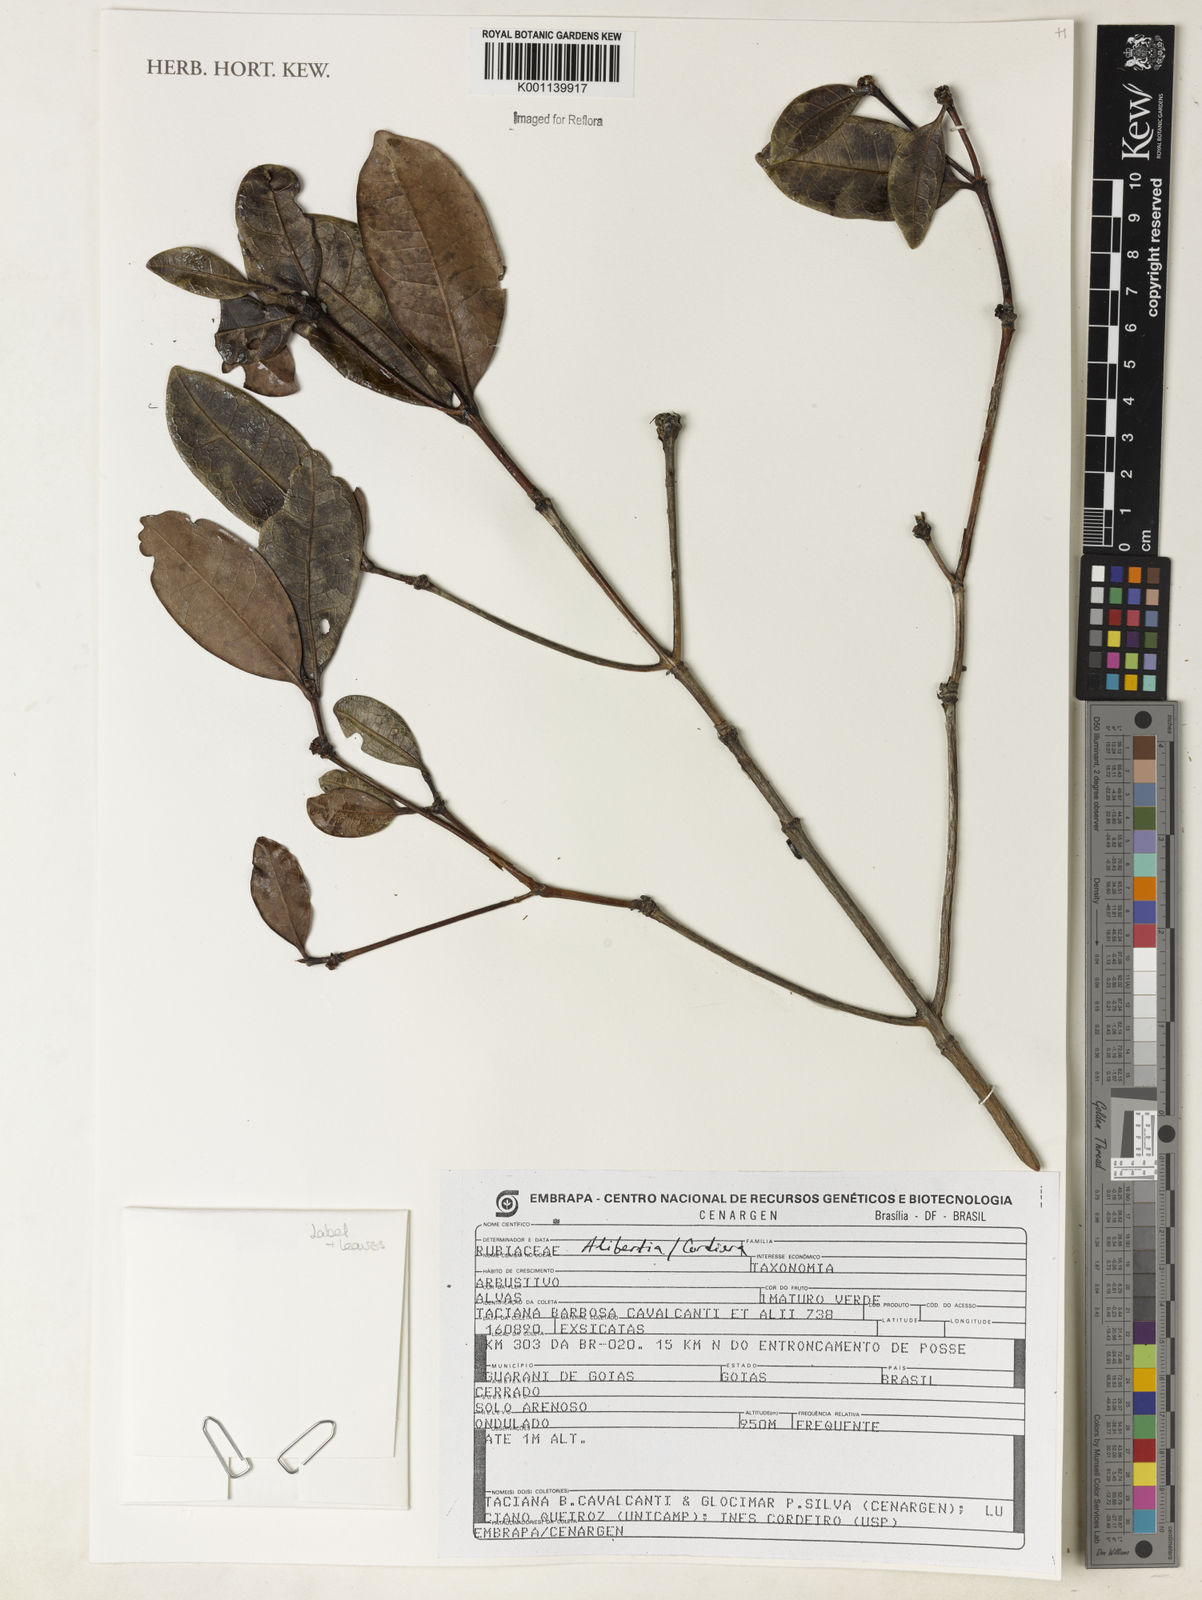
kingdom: Plantae
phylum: Tracheophyta
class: Magnoliopsida
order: Gentianales
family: Rubiaceae
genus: Alibertia
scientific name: Alibertia
